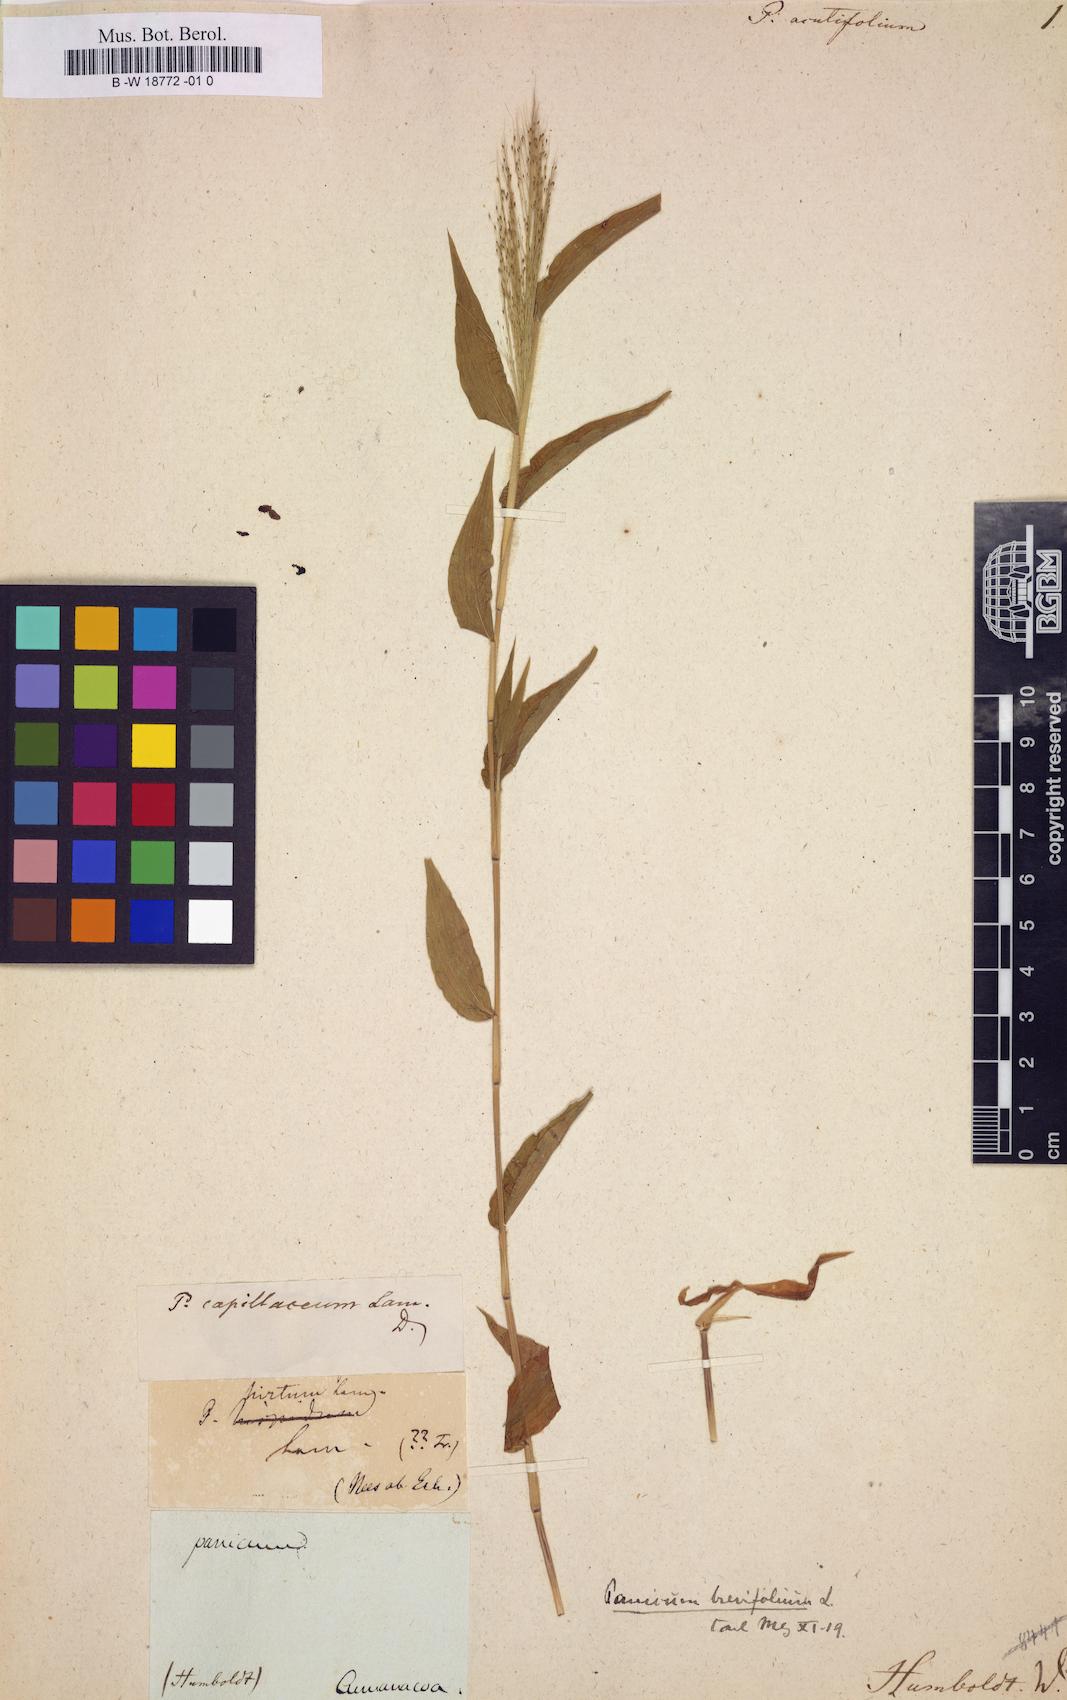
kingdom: Plantae
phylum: Tracheophyta
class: Liliopsida
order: Poales
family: Poaceae
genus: Panicum
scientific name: Panicum capillare
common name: Witch-grass
